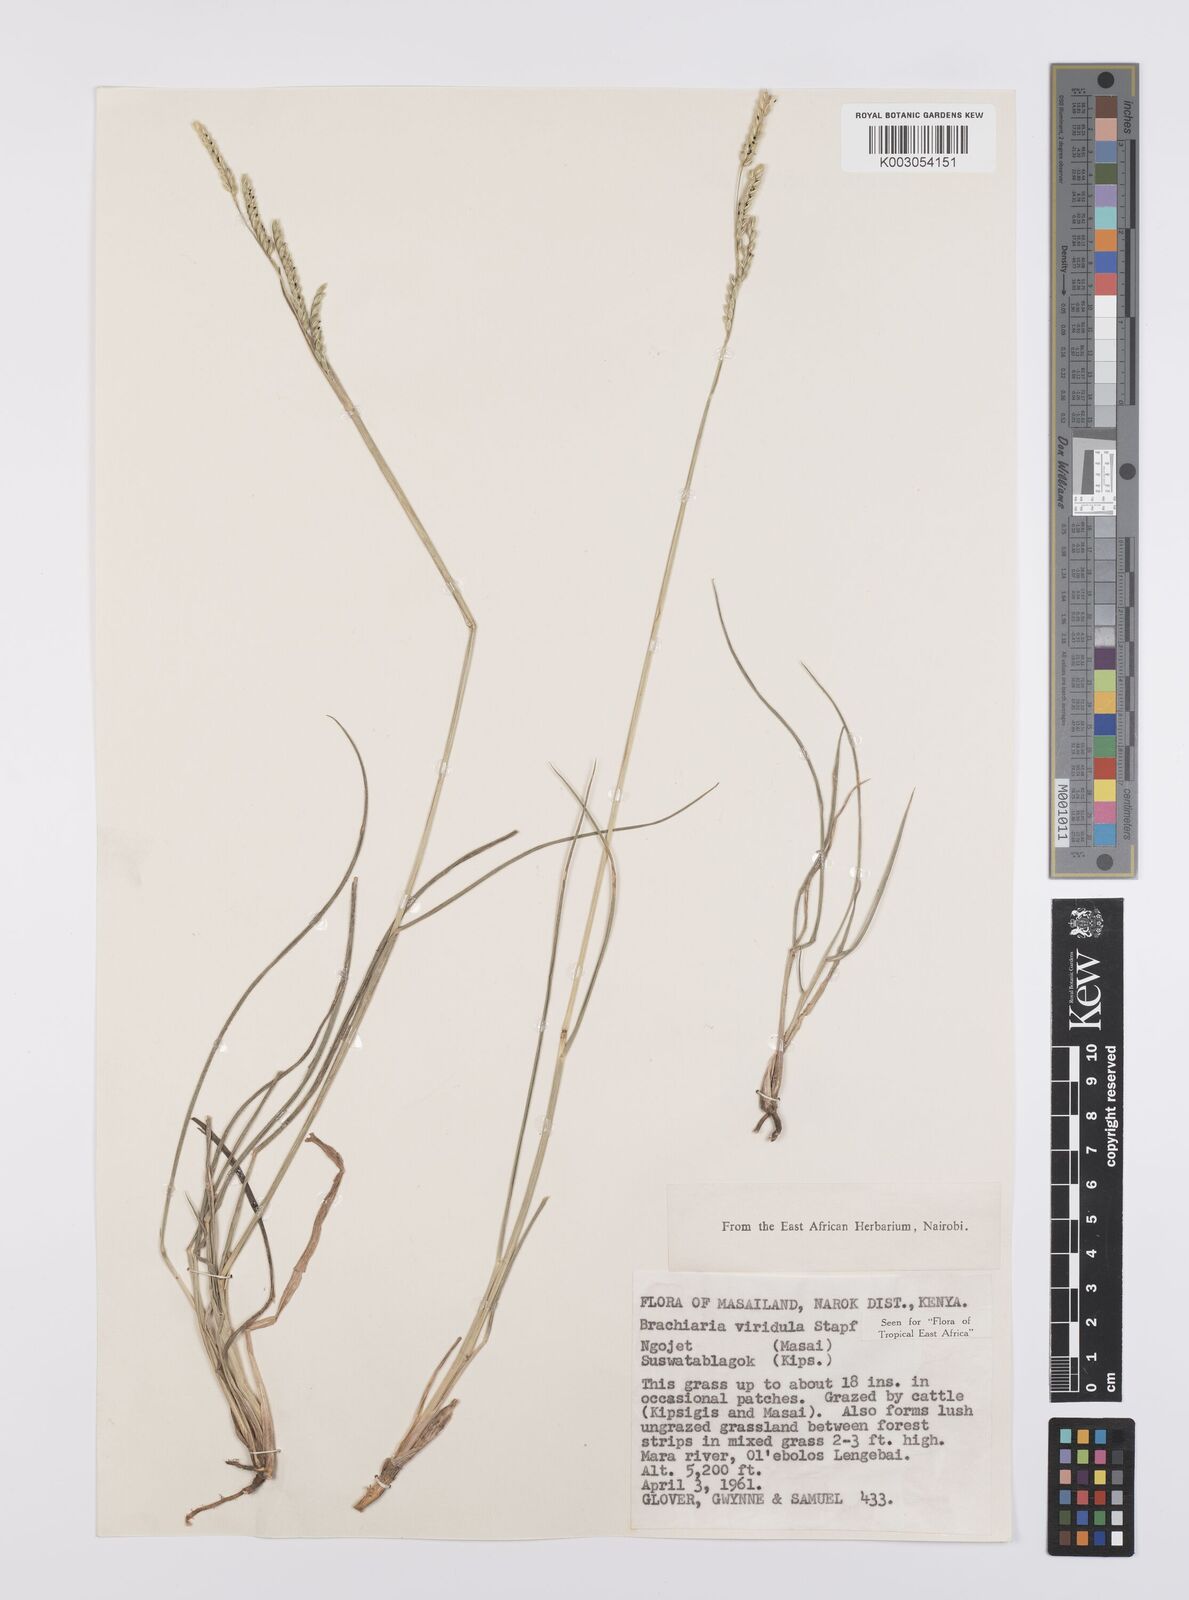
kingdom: Plantae
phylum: Tracheophyta
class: Liliopsida
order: Poales
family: Poaceae
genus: Urochloa
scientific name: Urochloa bovonei
